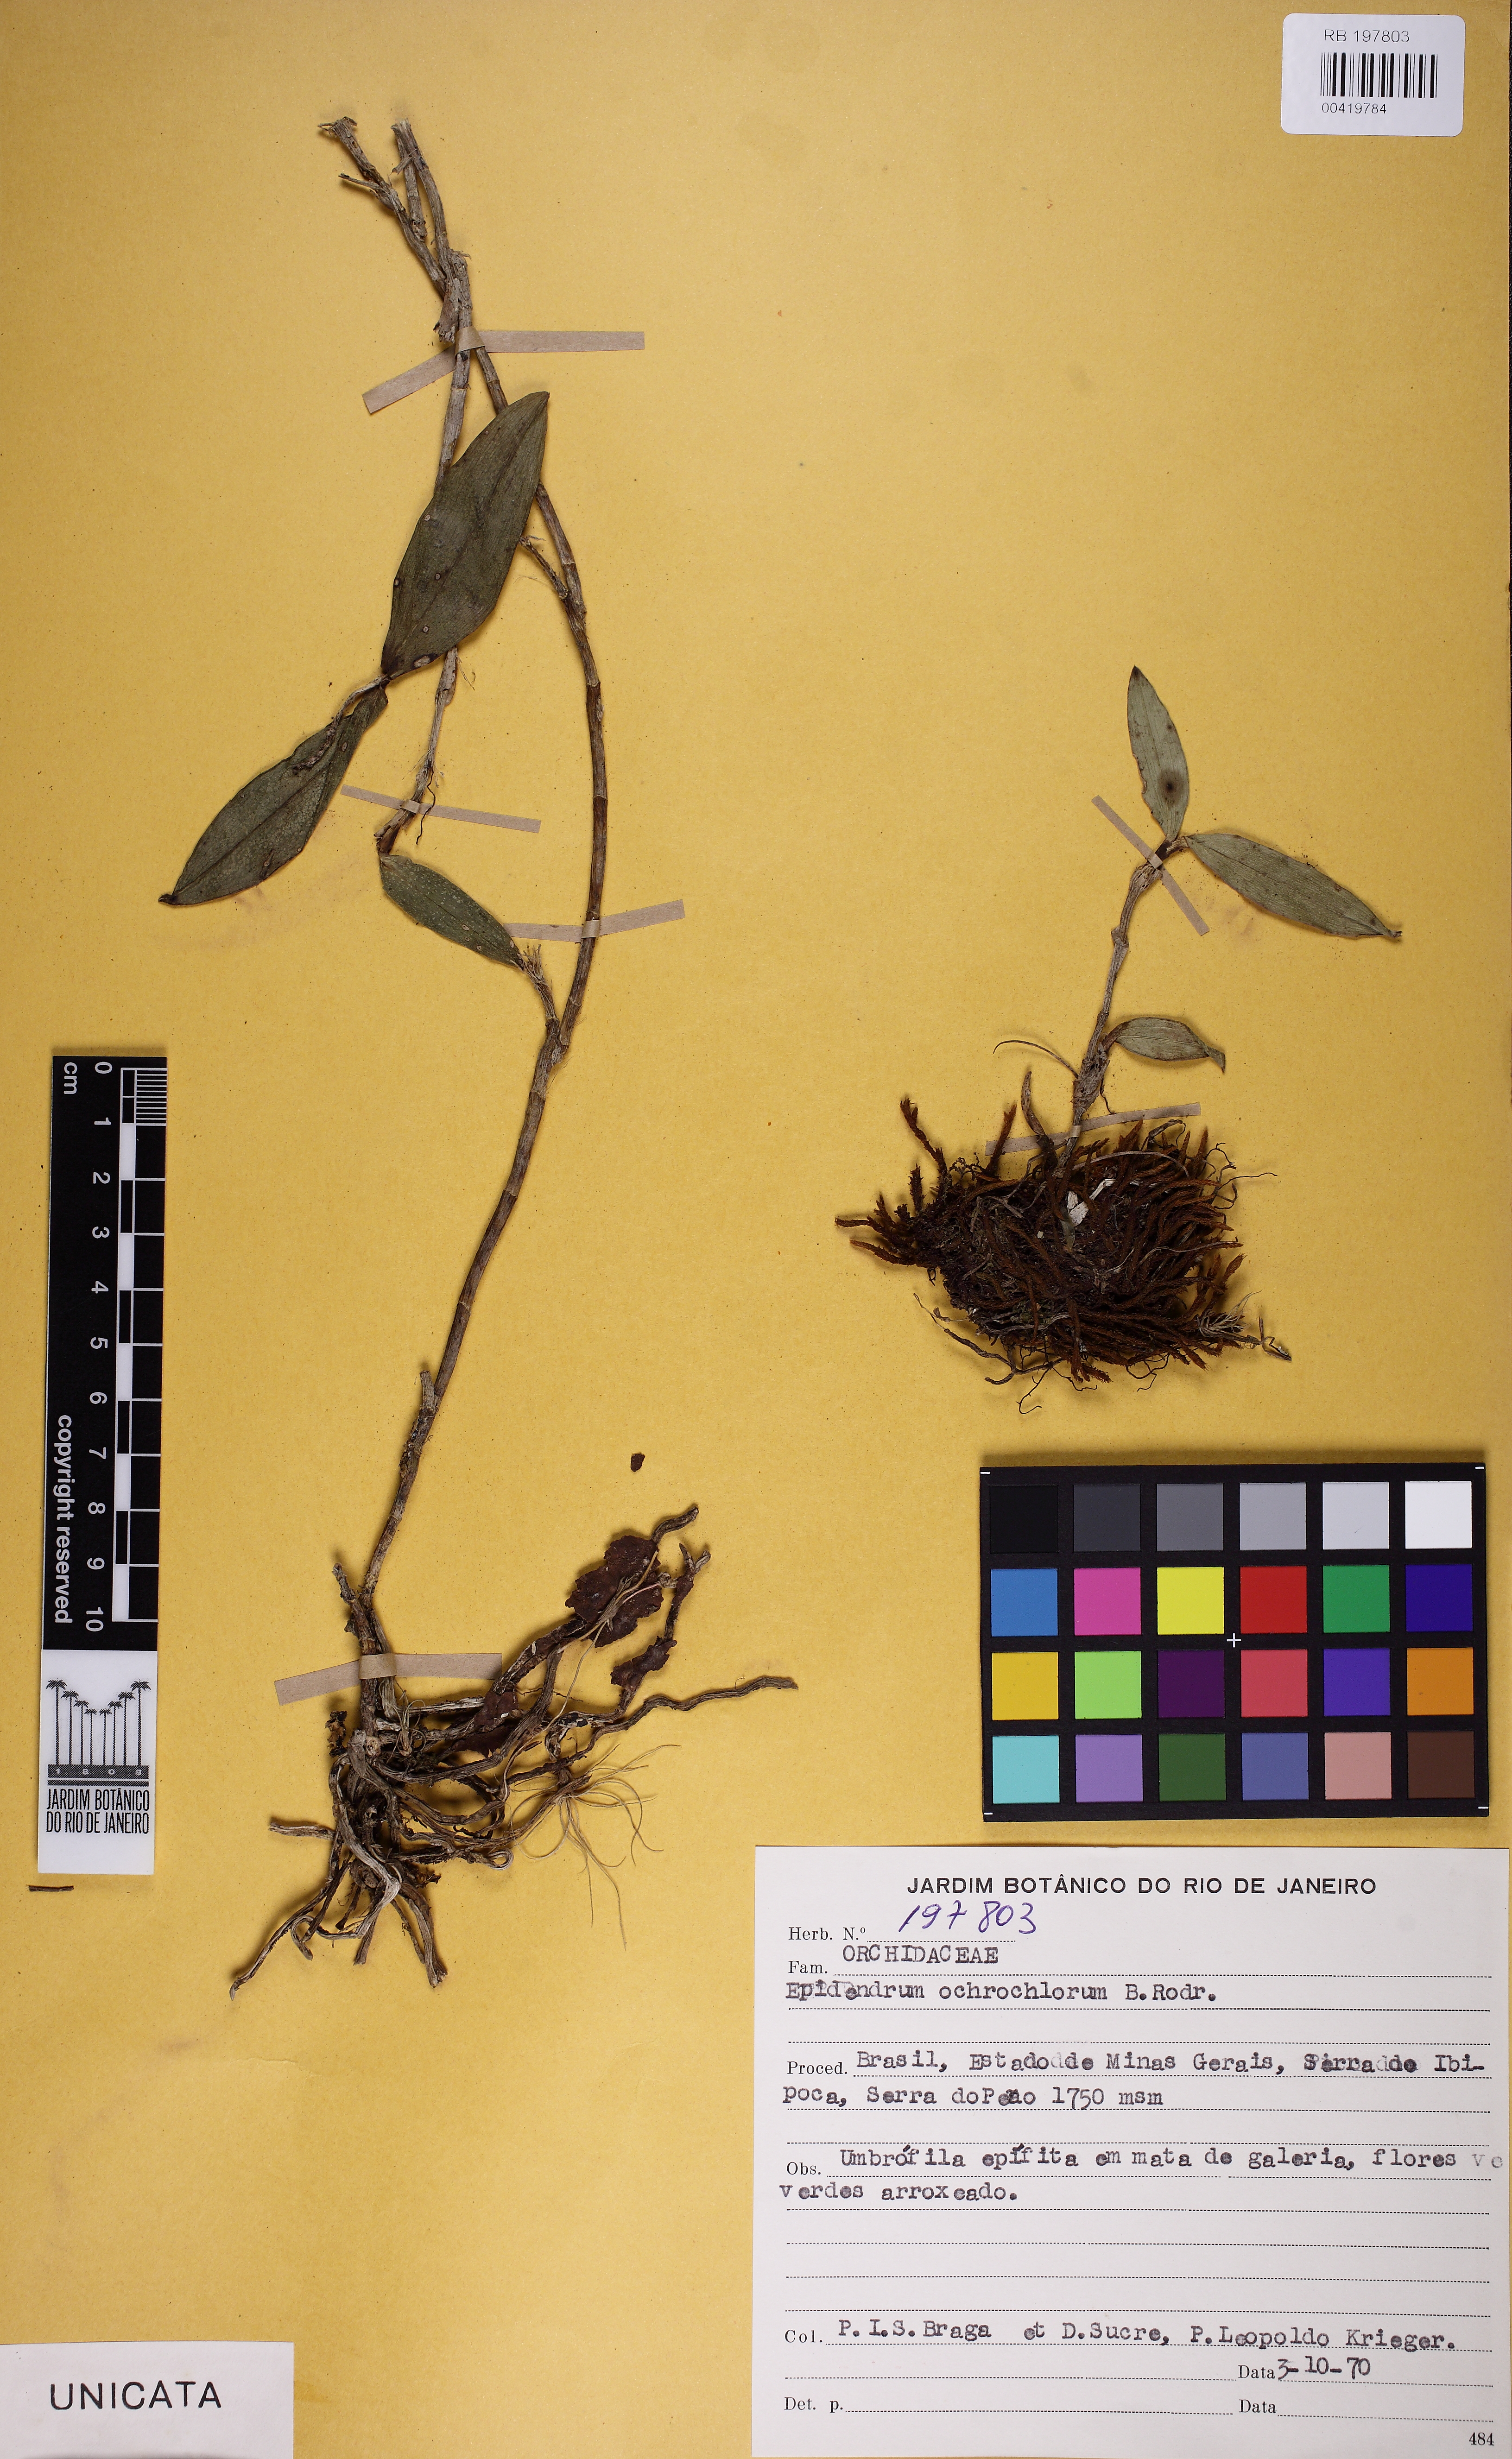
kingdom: Plantae
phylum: Tracheophyta
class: Liliopsida
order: Asparagales
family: Orchidaceae
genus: Epidendrum
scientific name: Epidendrum parahybunense
